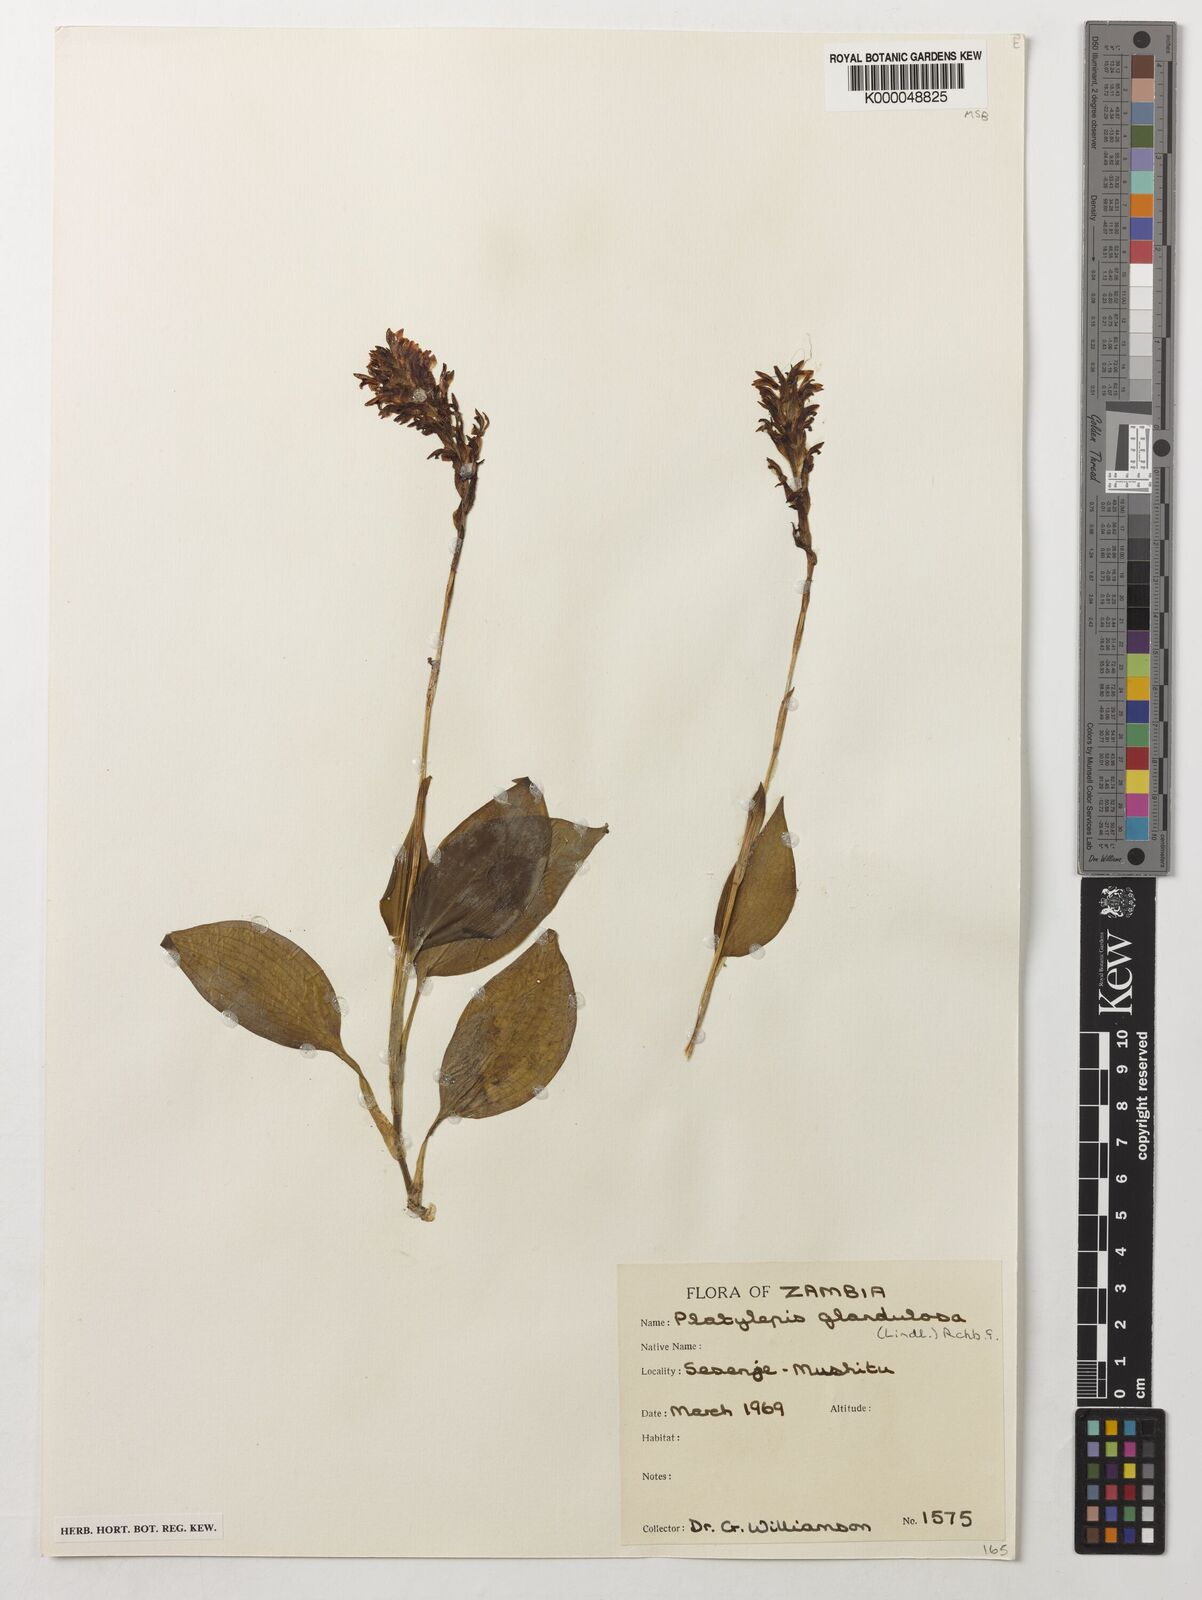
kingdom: Plantae
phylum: Tracheophyta
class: Liliopsida
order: Asparagales
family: Orchidaceae
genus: Platylepis
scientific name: Platylepis glandulosa
